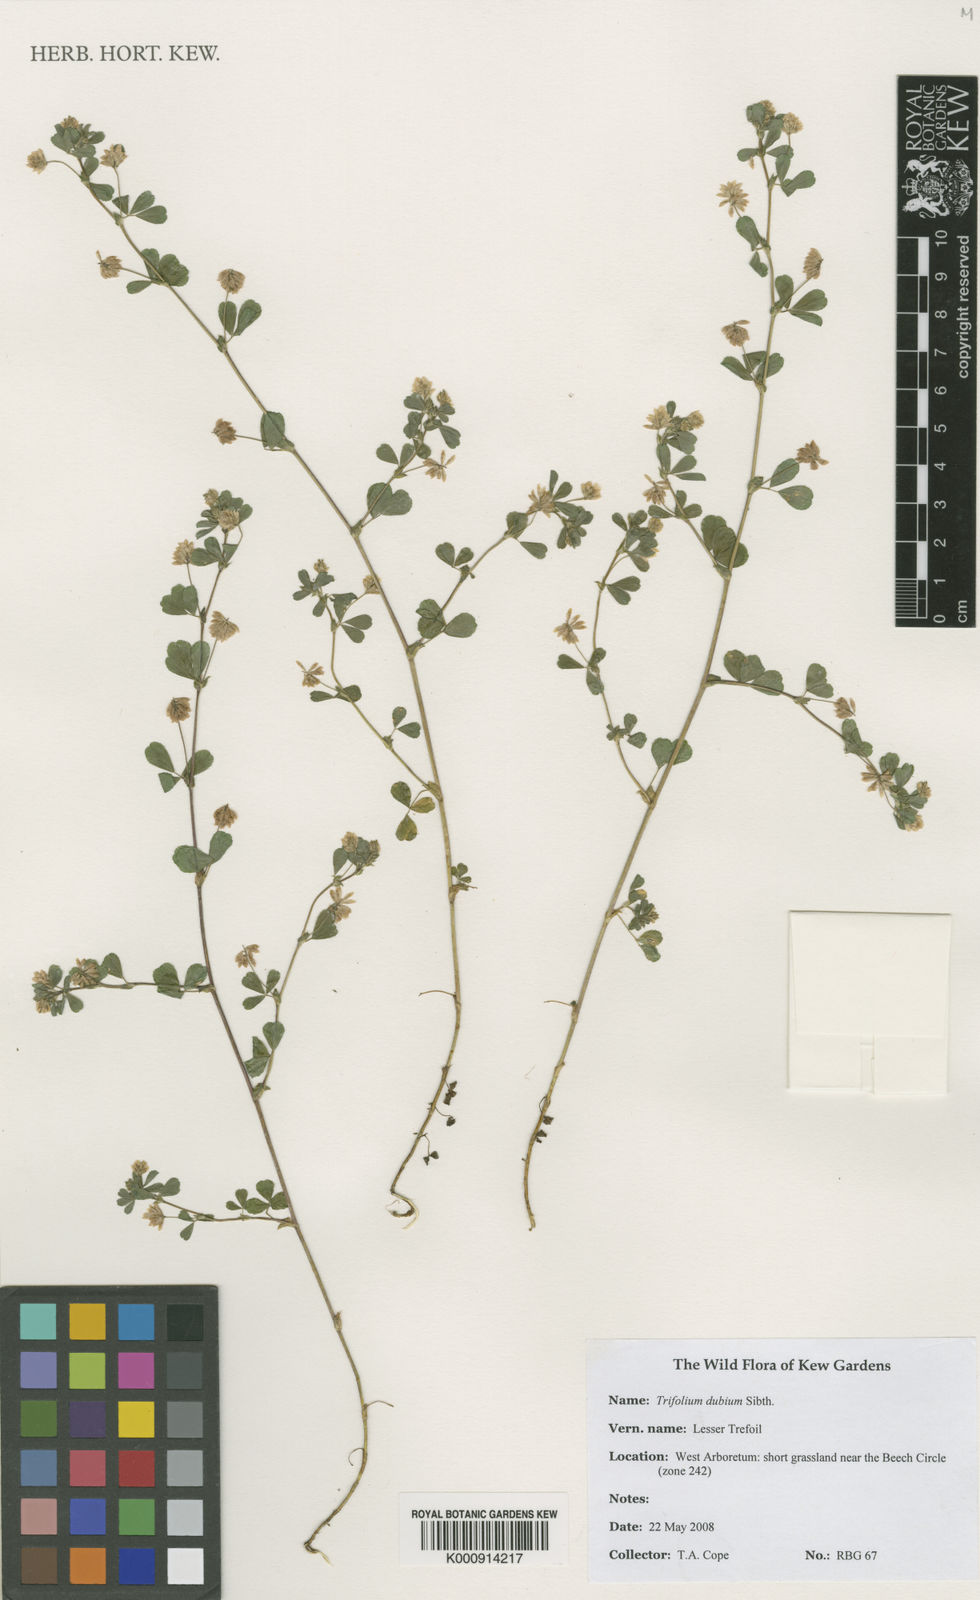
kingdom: Plantae
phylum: Tracheophyta
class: Magnoliopsida
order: Fabales
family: Fabaceae
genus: Trifolium
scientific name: Trifolium dubium
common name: Suckling clover
